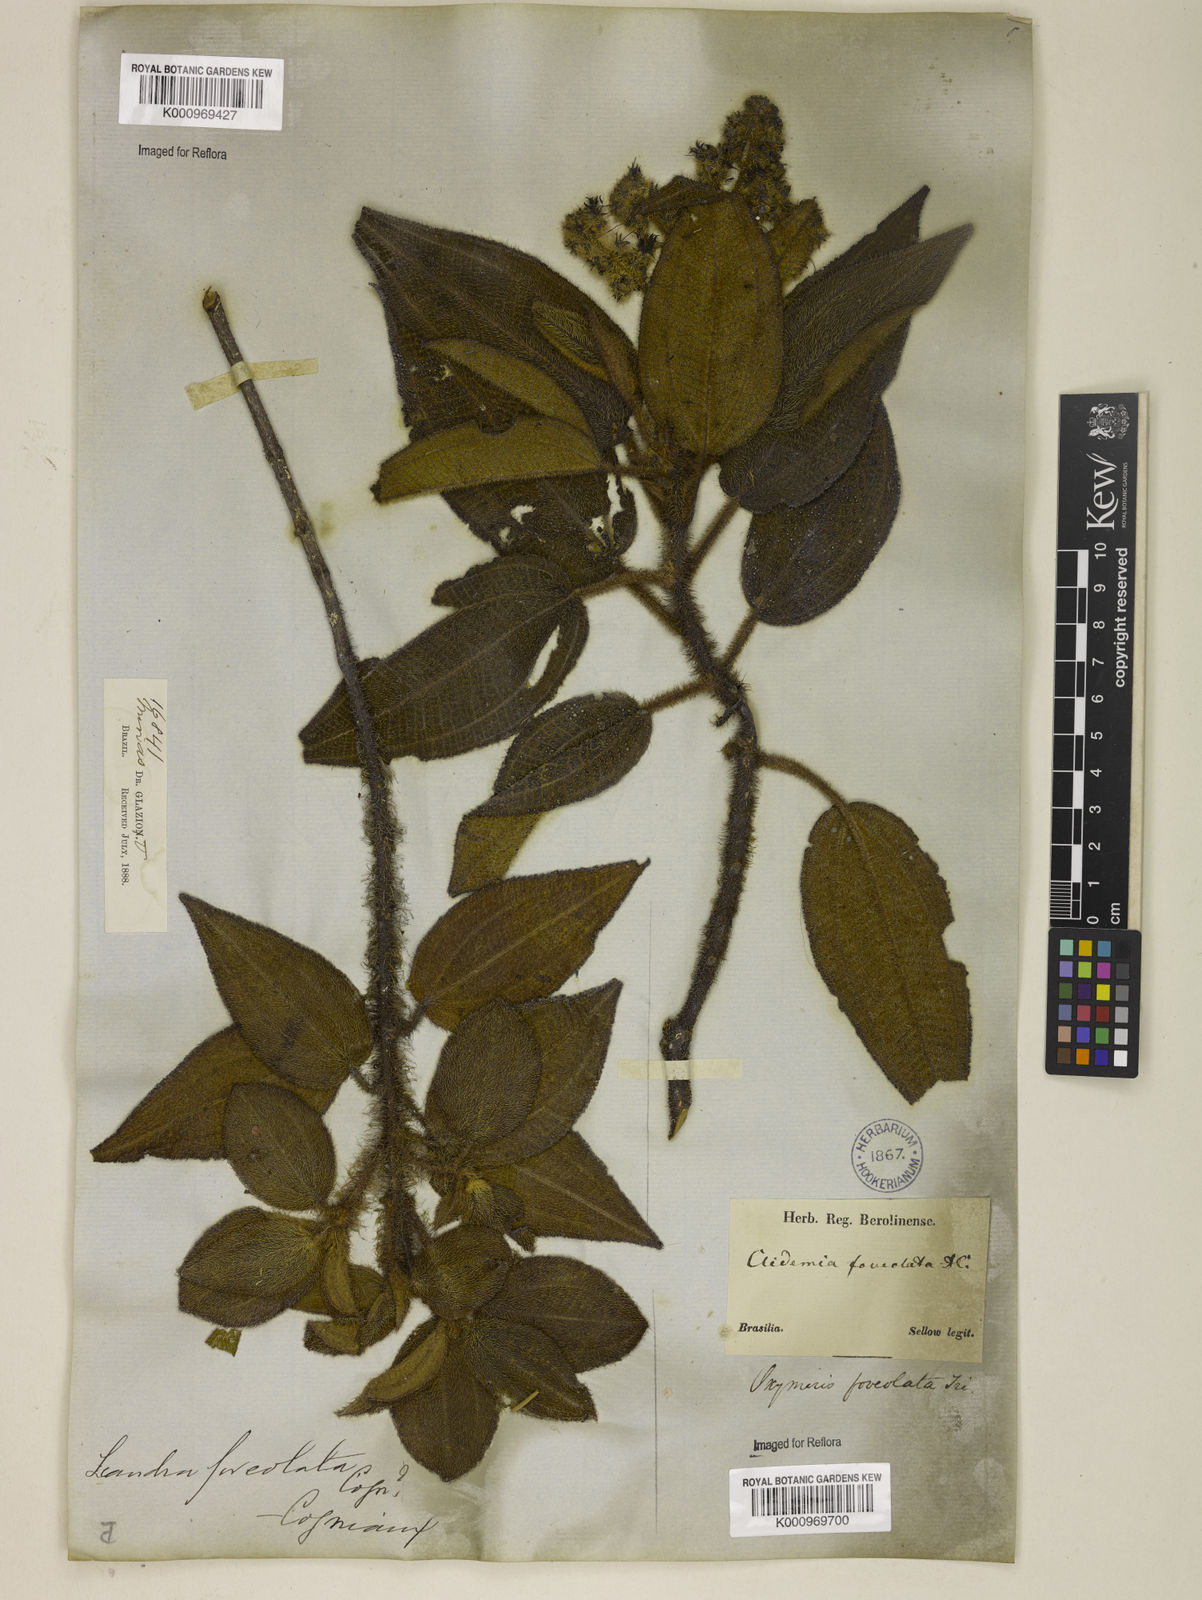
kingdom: Plantae
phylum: Tracheophyta
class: Magnoliopsida
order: Myrtales
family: Melastomataceae
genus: Miconia
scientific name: Miconia leafoveolata
